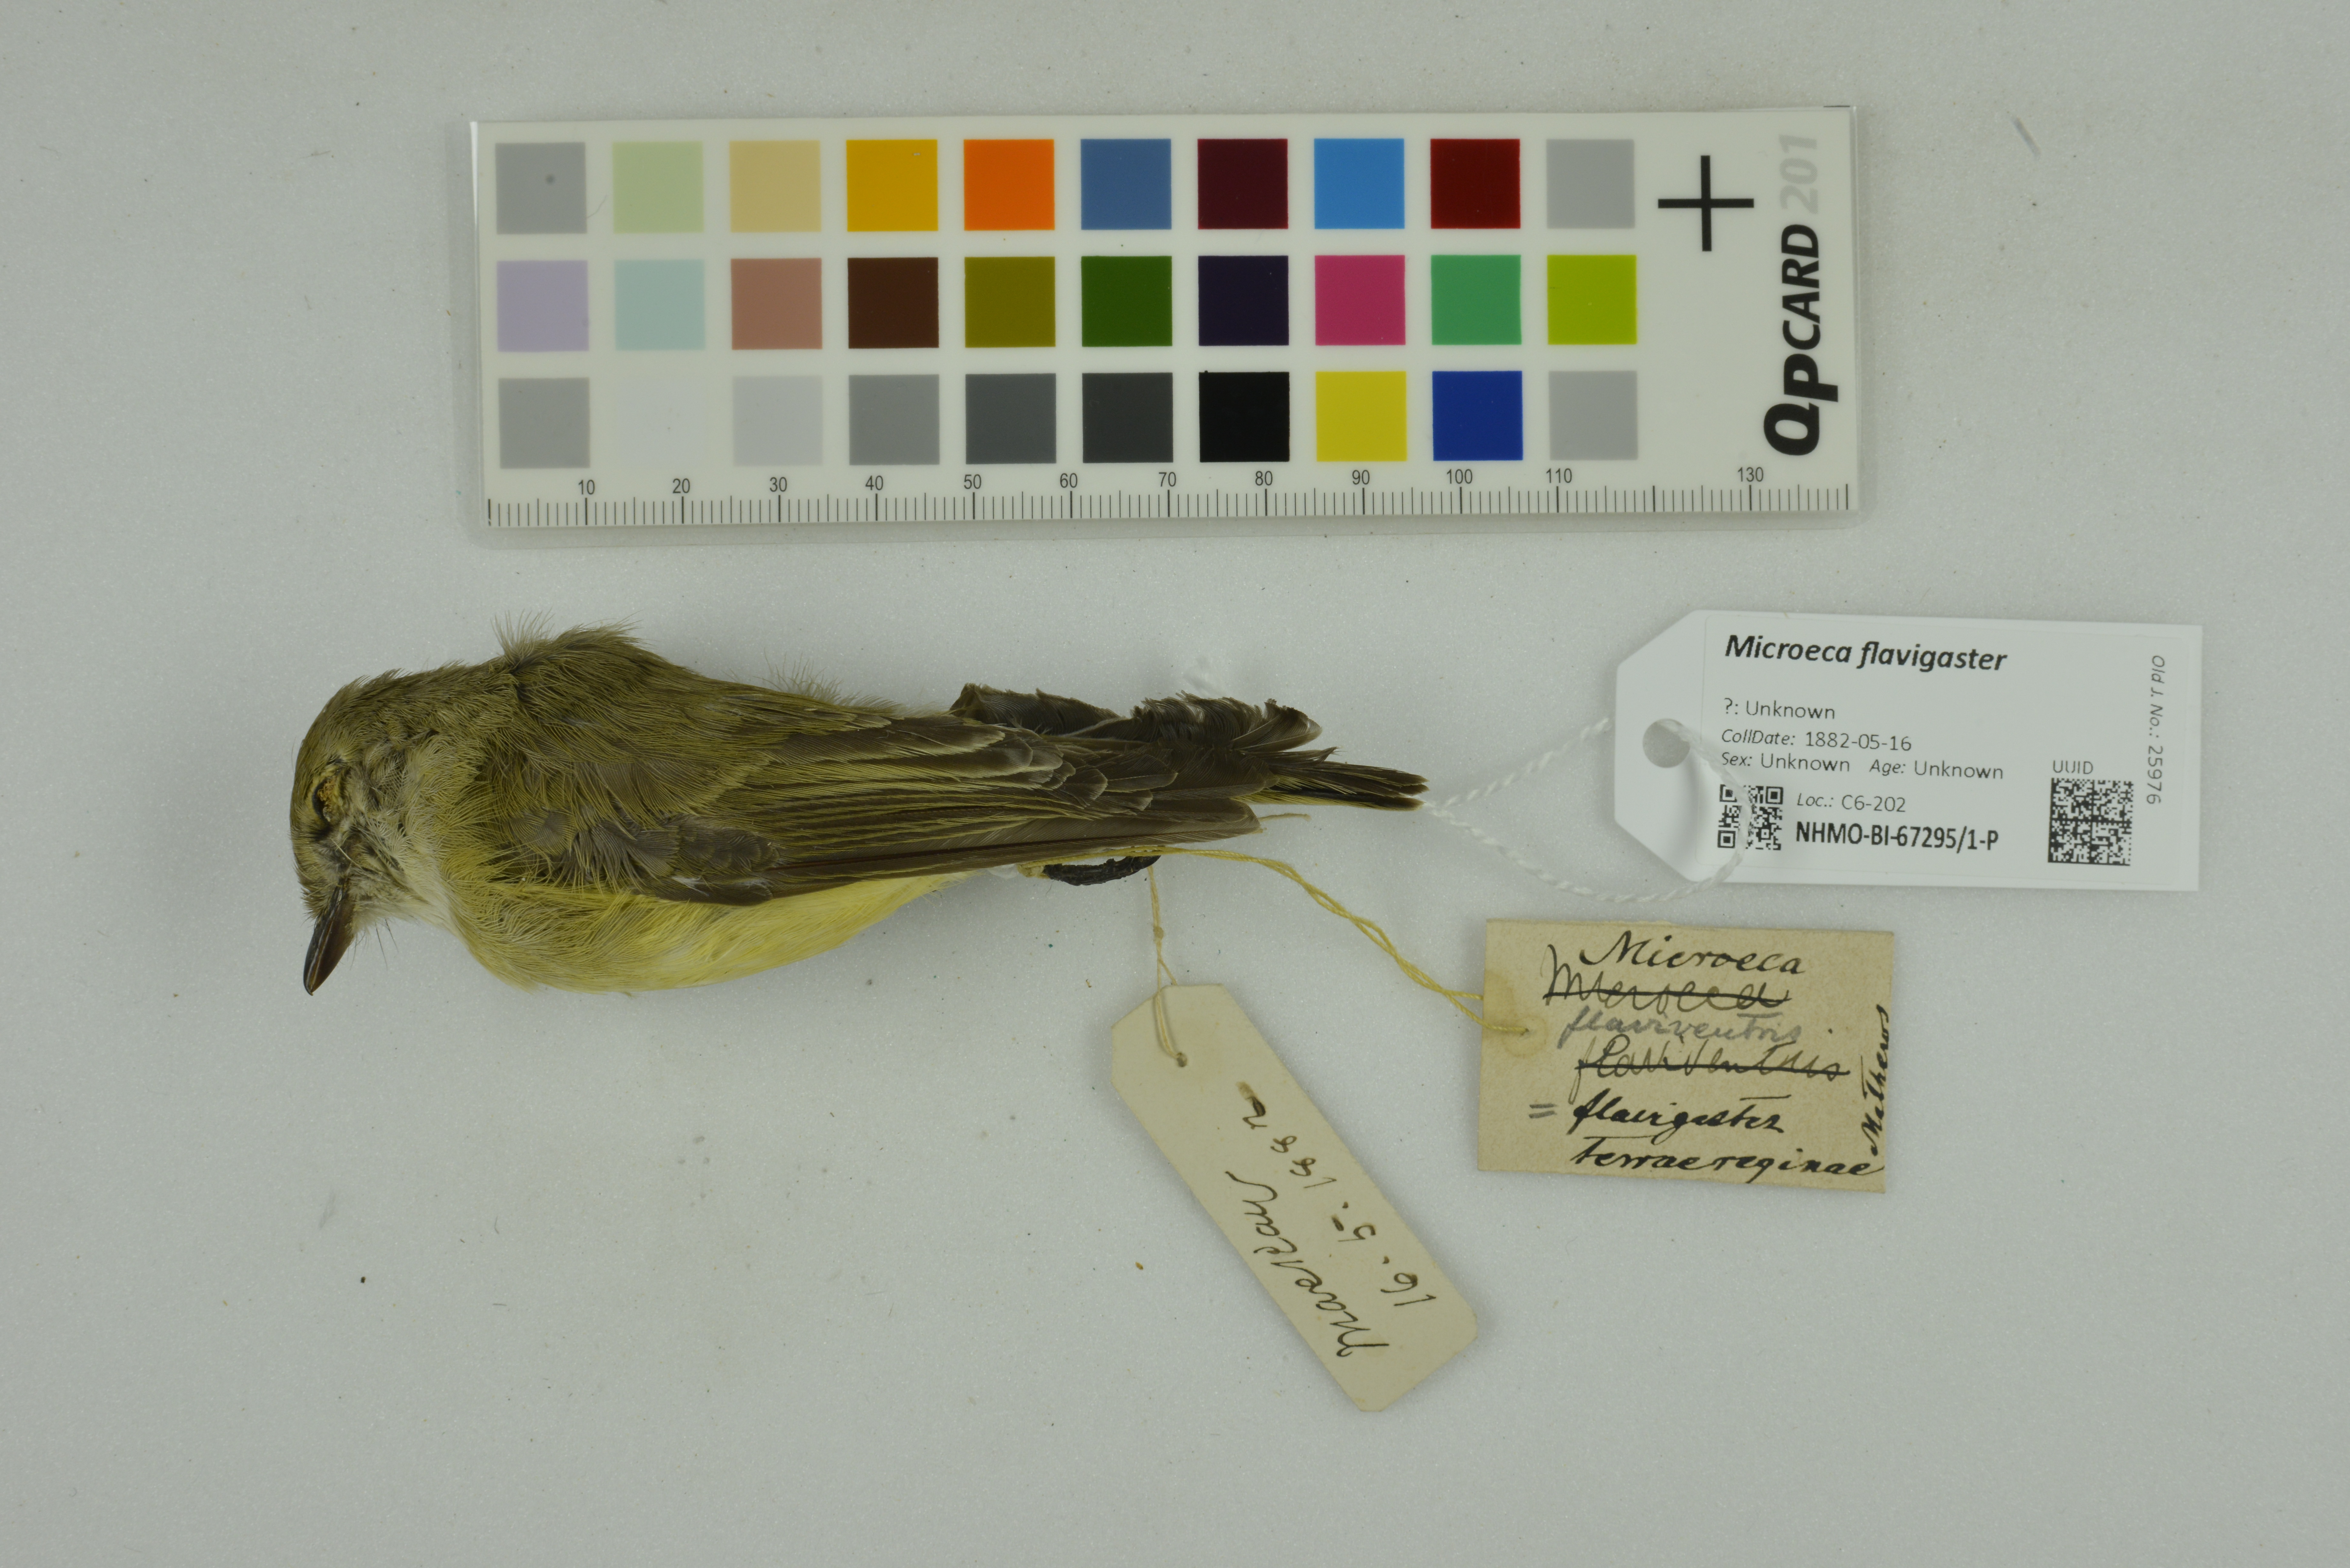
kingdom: Animalia
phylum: Chordata
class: Aves
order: Passeriformes
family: Petroicidae
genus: Microeca
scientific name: Microeca flavigaster
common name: Lemon-bellied flyrobin
